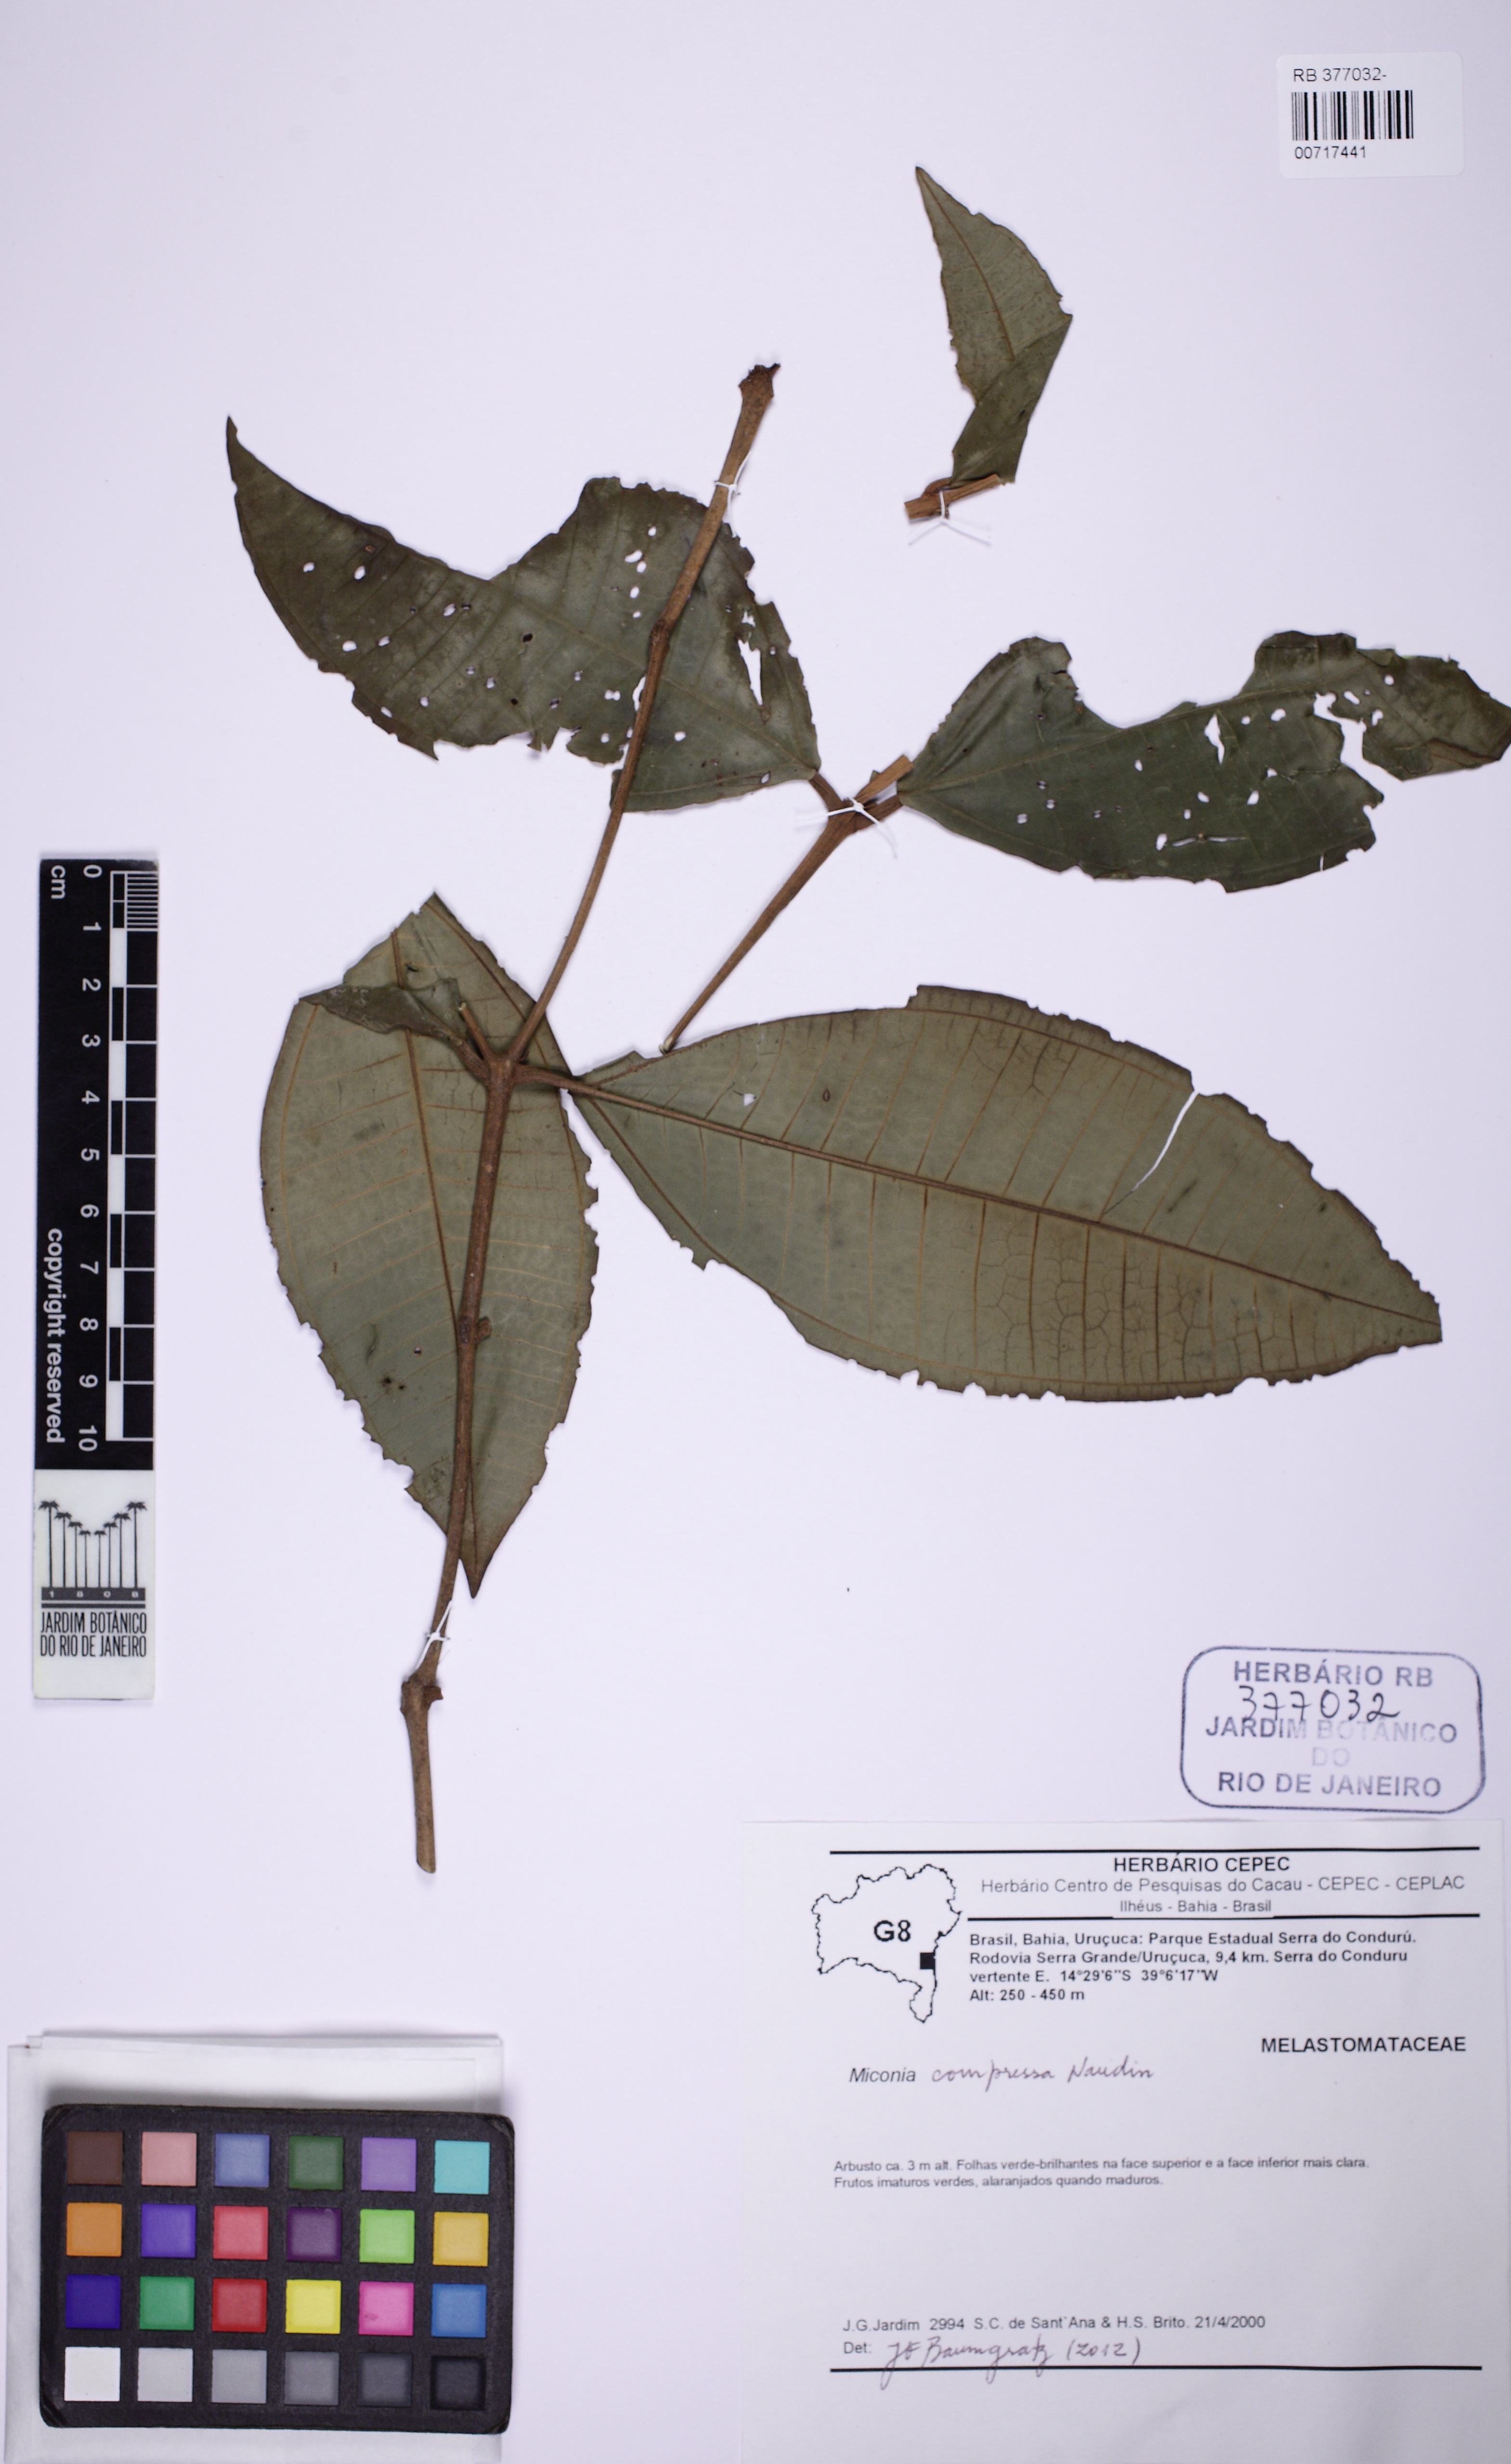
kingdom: Plantae
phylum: Tracheophyta
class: Magnoliopsida
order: Myrtales
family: Melastomataceae
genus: Miconia
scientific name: Miconia compressa
